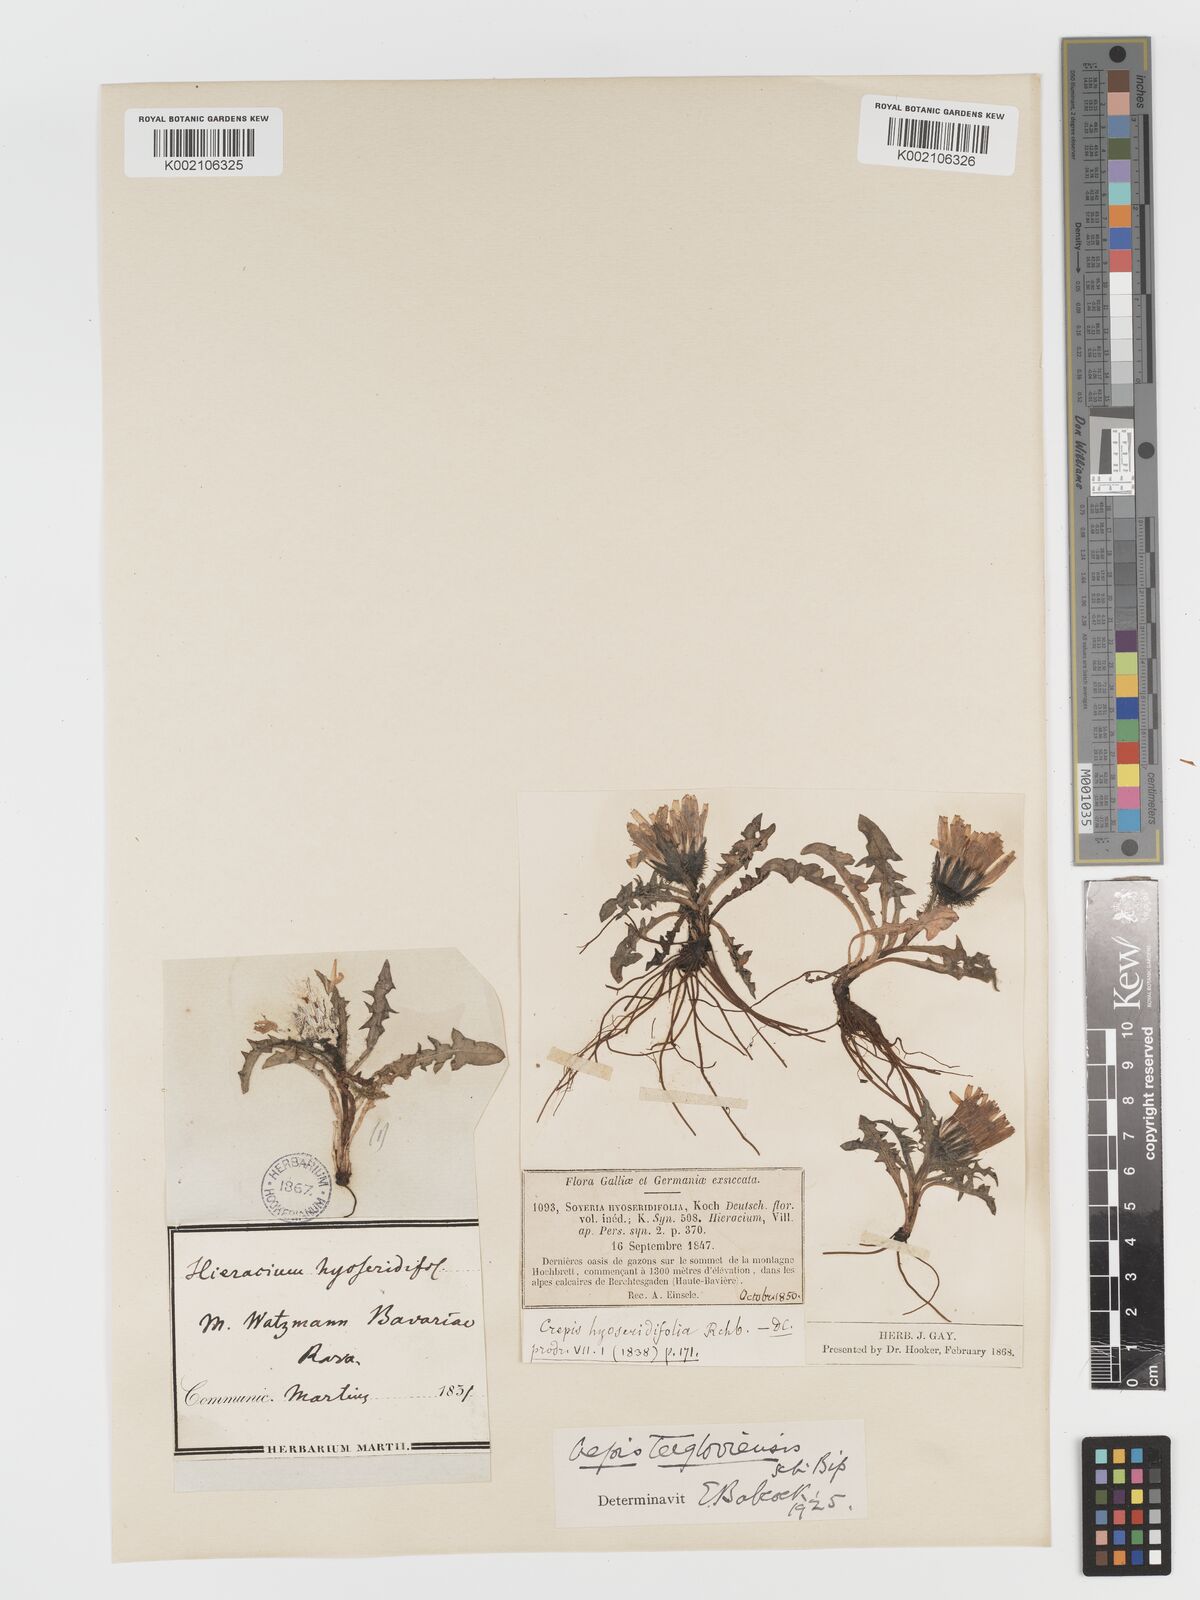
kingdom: Plantae
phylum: Tracheophyta
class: Magnoliopsida
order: Asterales
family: Asteraceae
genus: Crepis
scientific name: Crepis
